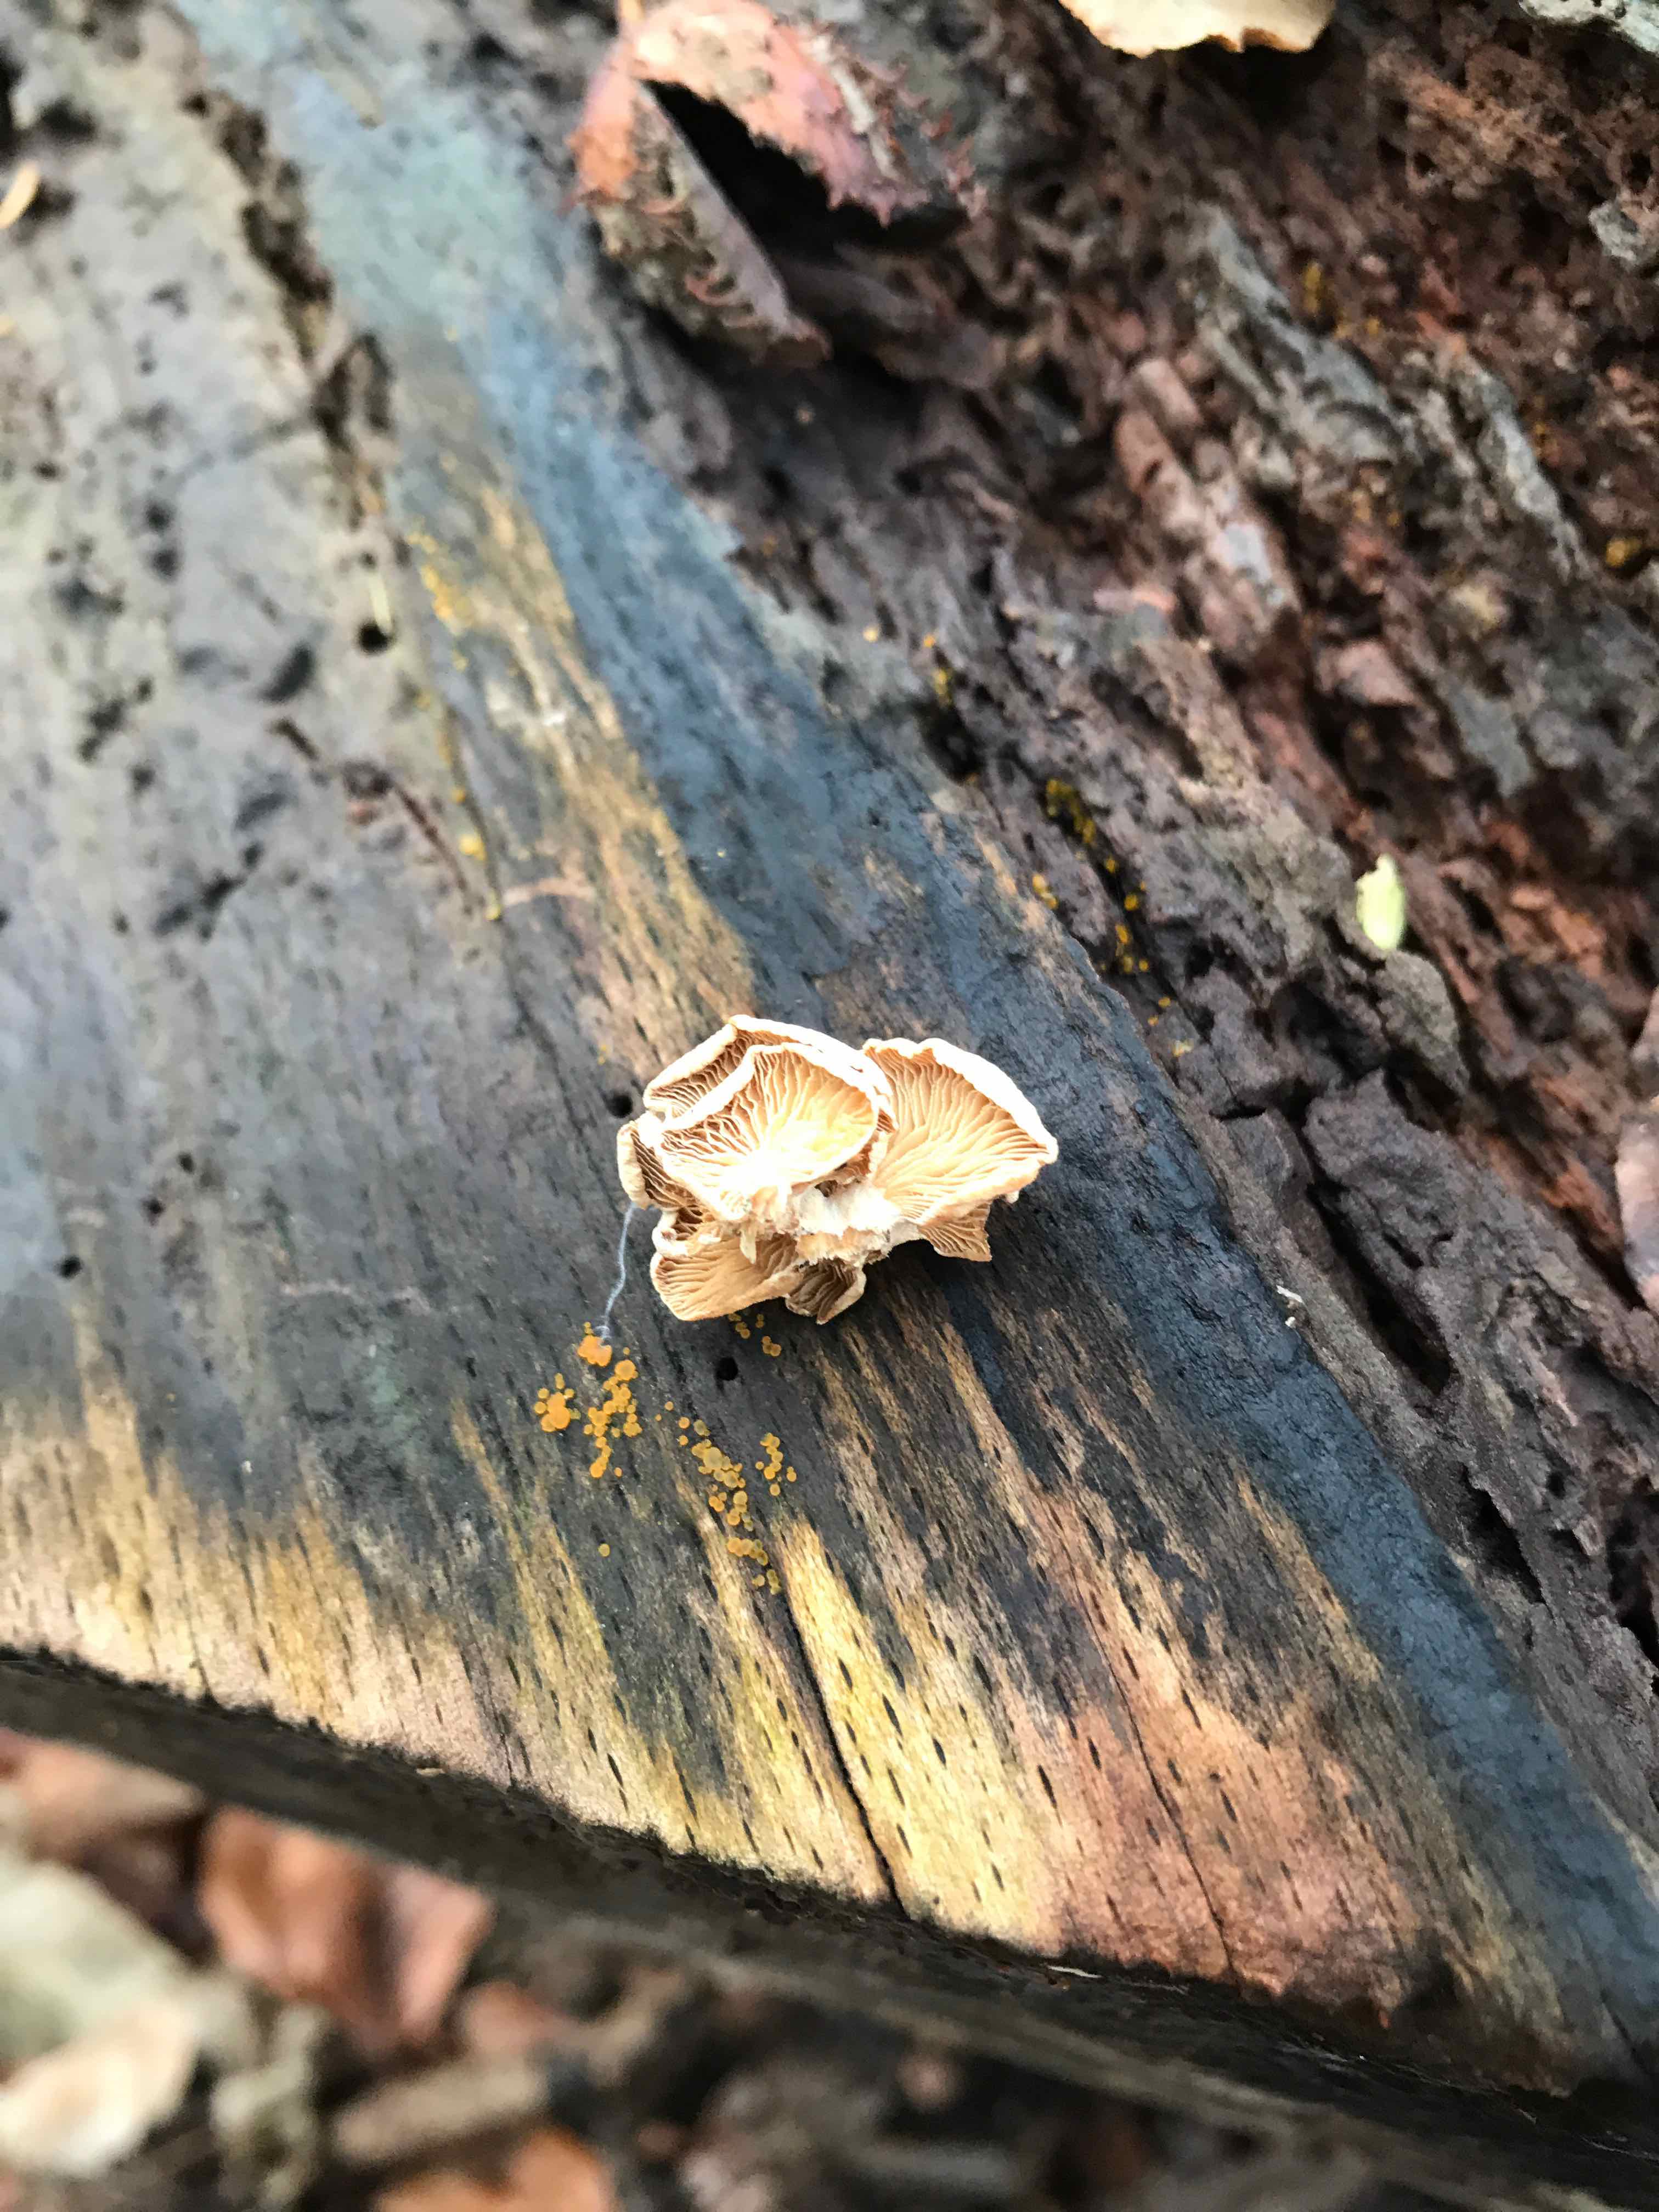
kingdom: Fungi
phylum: Basidiomycota
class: Agaricomycetes
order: Agaricales
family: Mycenaceae
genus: Panellus
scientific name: Panellus stipticus
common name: kliddet epaulethat
